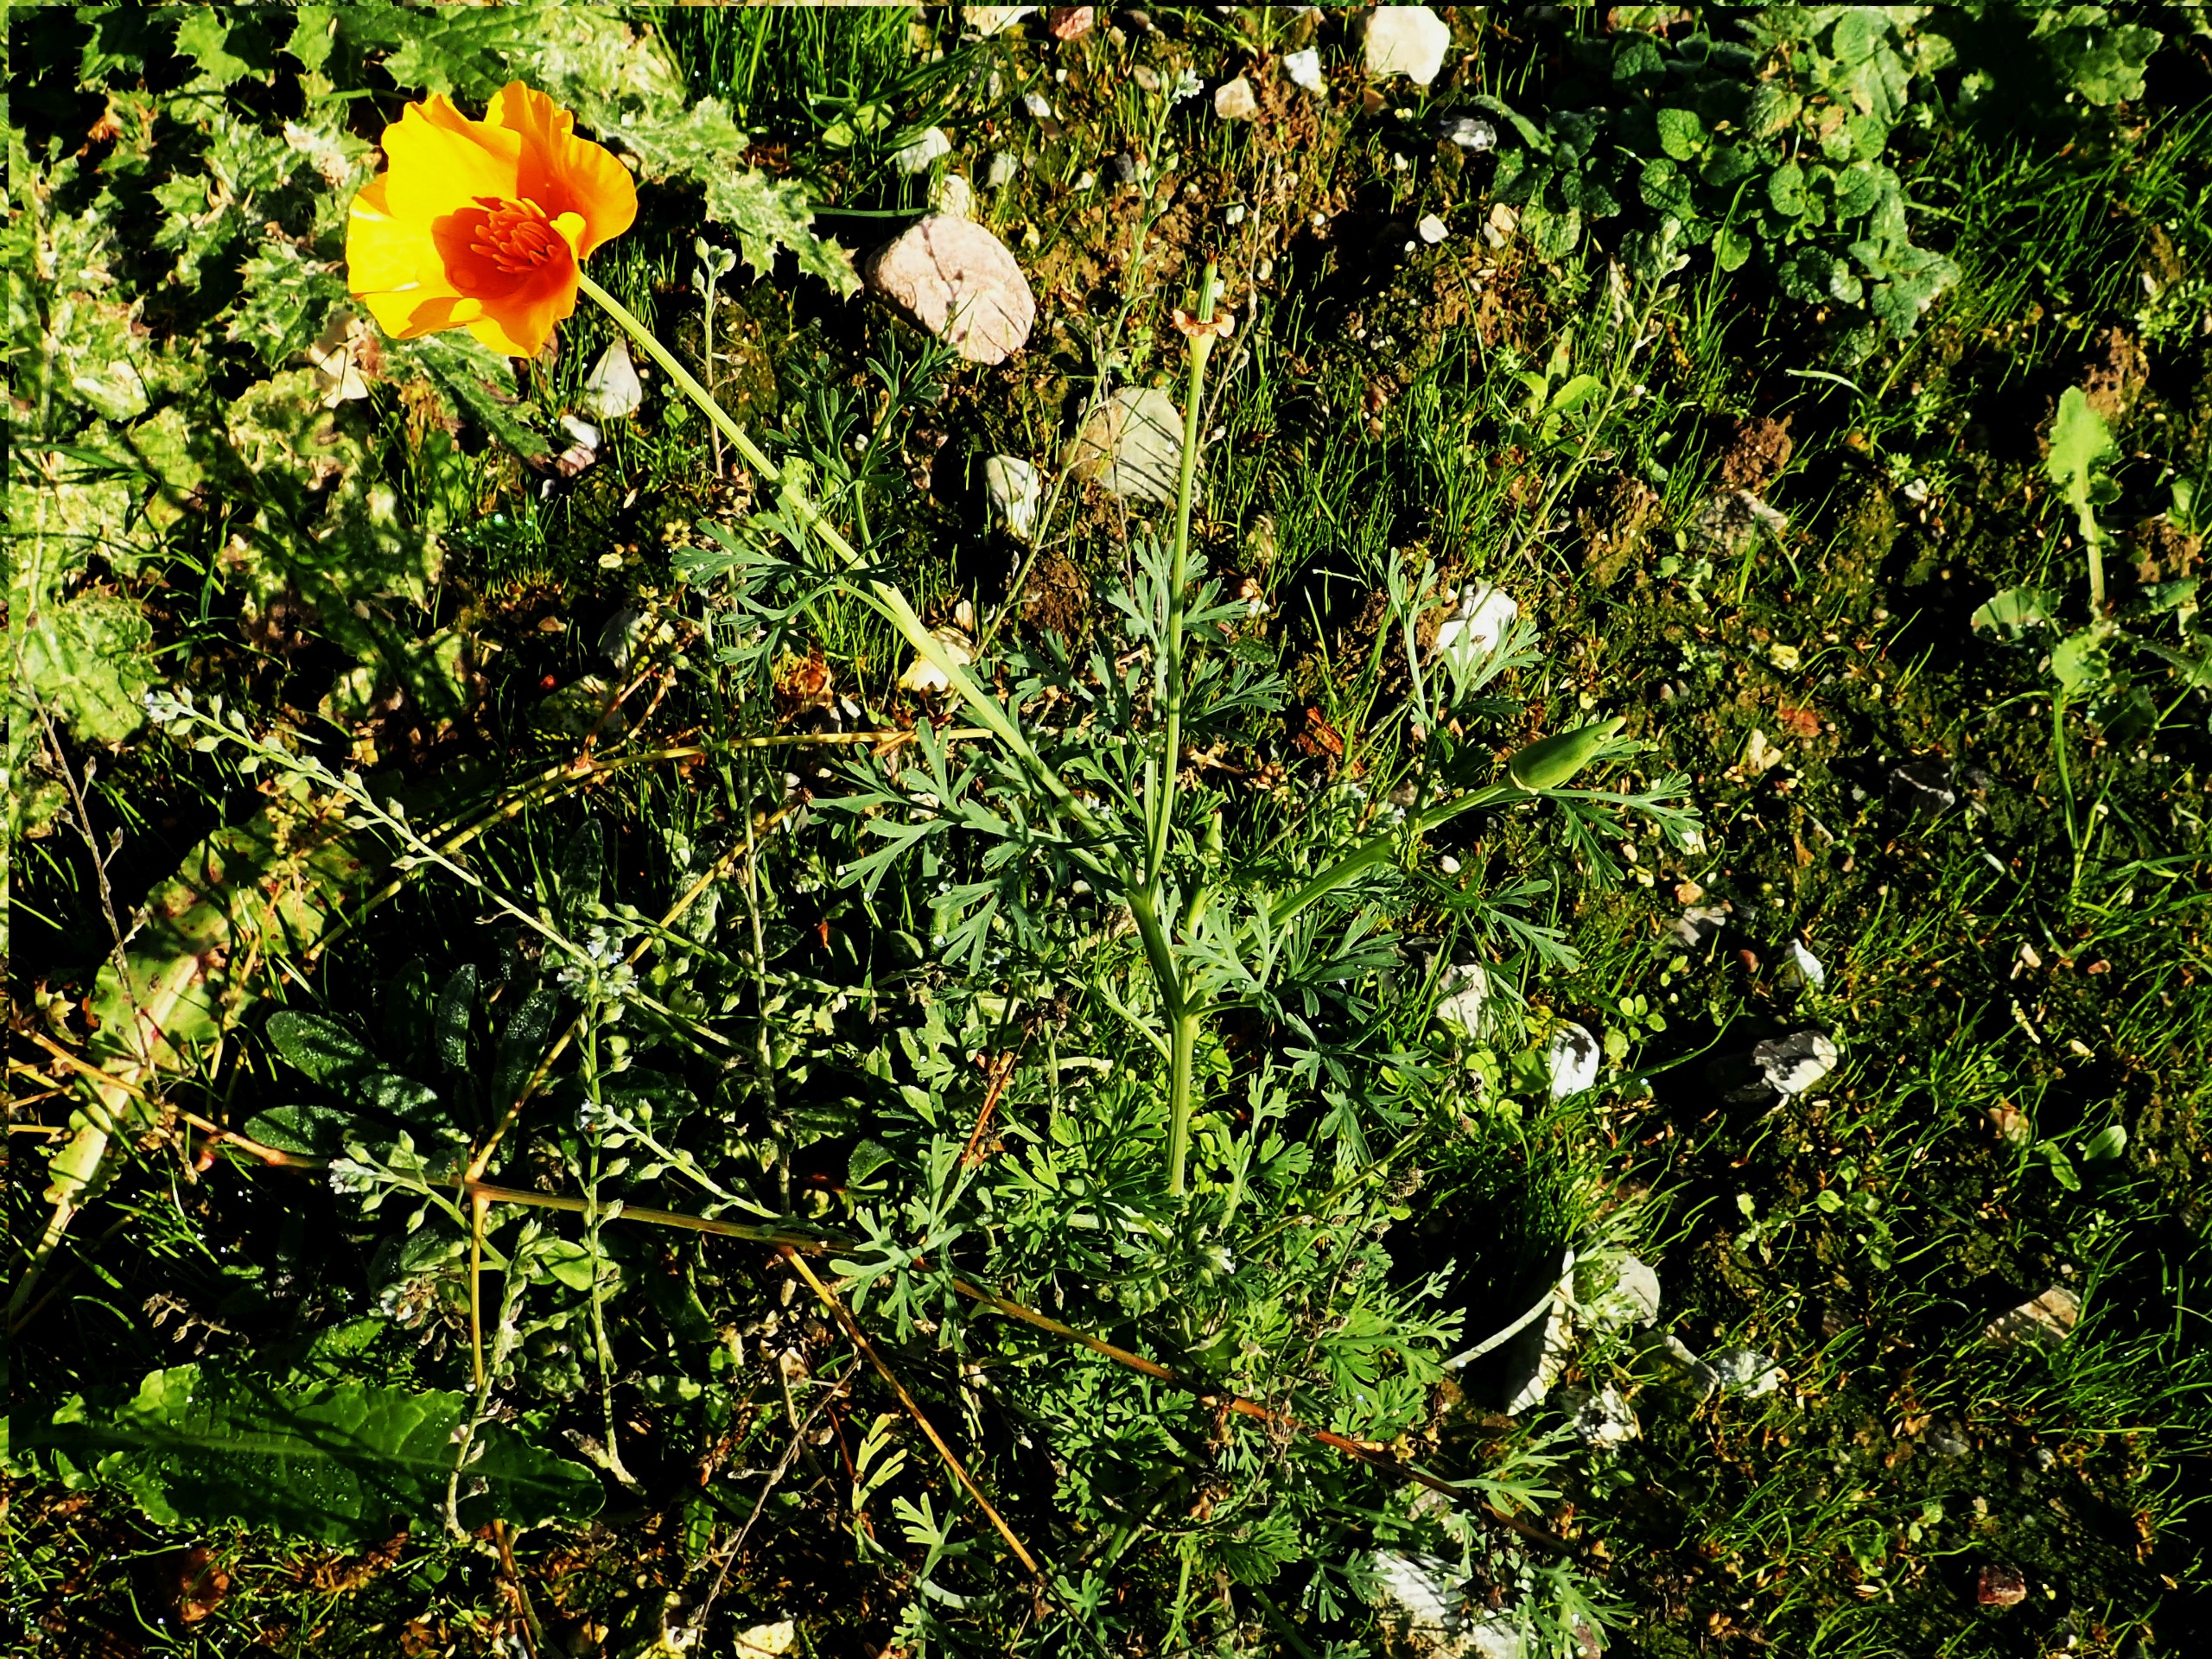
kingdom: Plantae
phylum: Tracheophyta
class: Magnoliopsida
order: Ranunculales
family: Papaveraceae
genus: Eschscholzia
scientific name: Eschscholzia californica
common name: Guldvalmue
